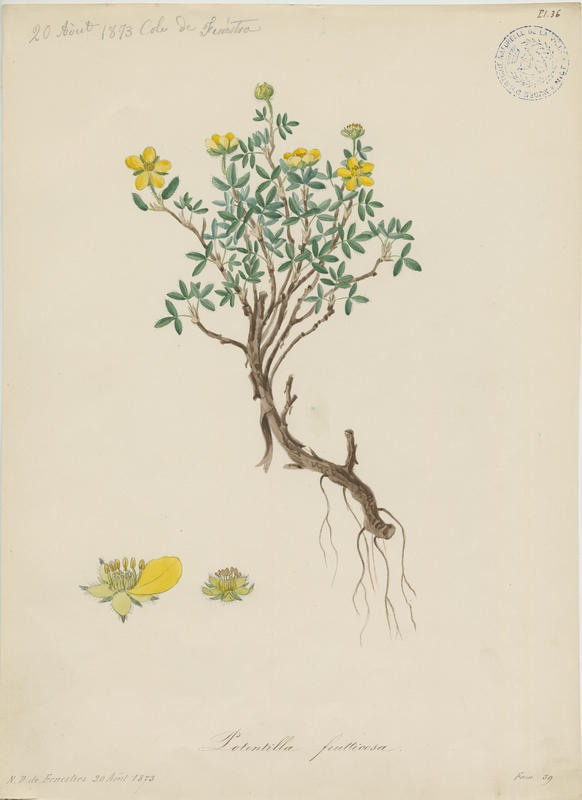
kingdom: Plantae
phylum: Tracheophyta
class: Magnoliopsida
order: Rosales
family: Rosaceae
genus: Dasiphora
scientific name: Dasiphora fruticosa
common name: Shrubby cinquefoil
